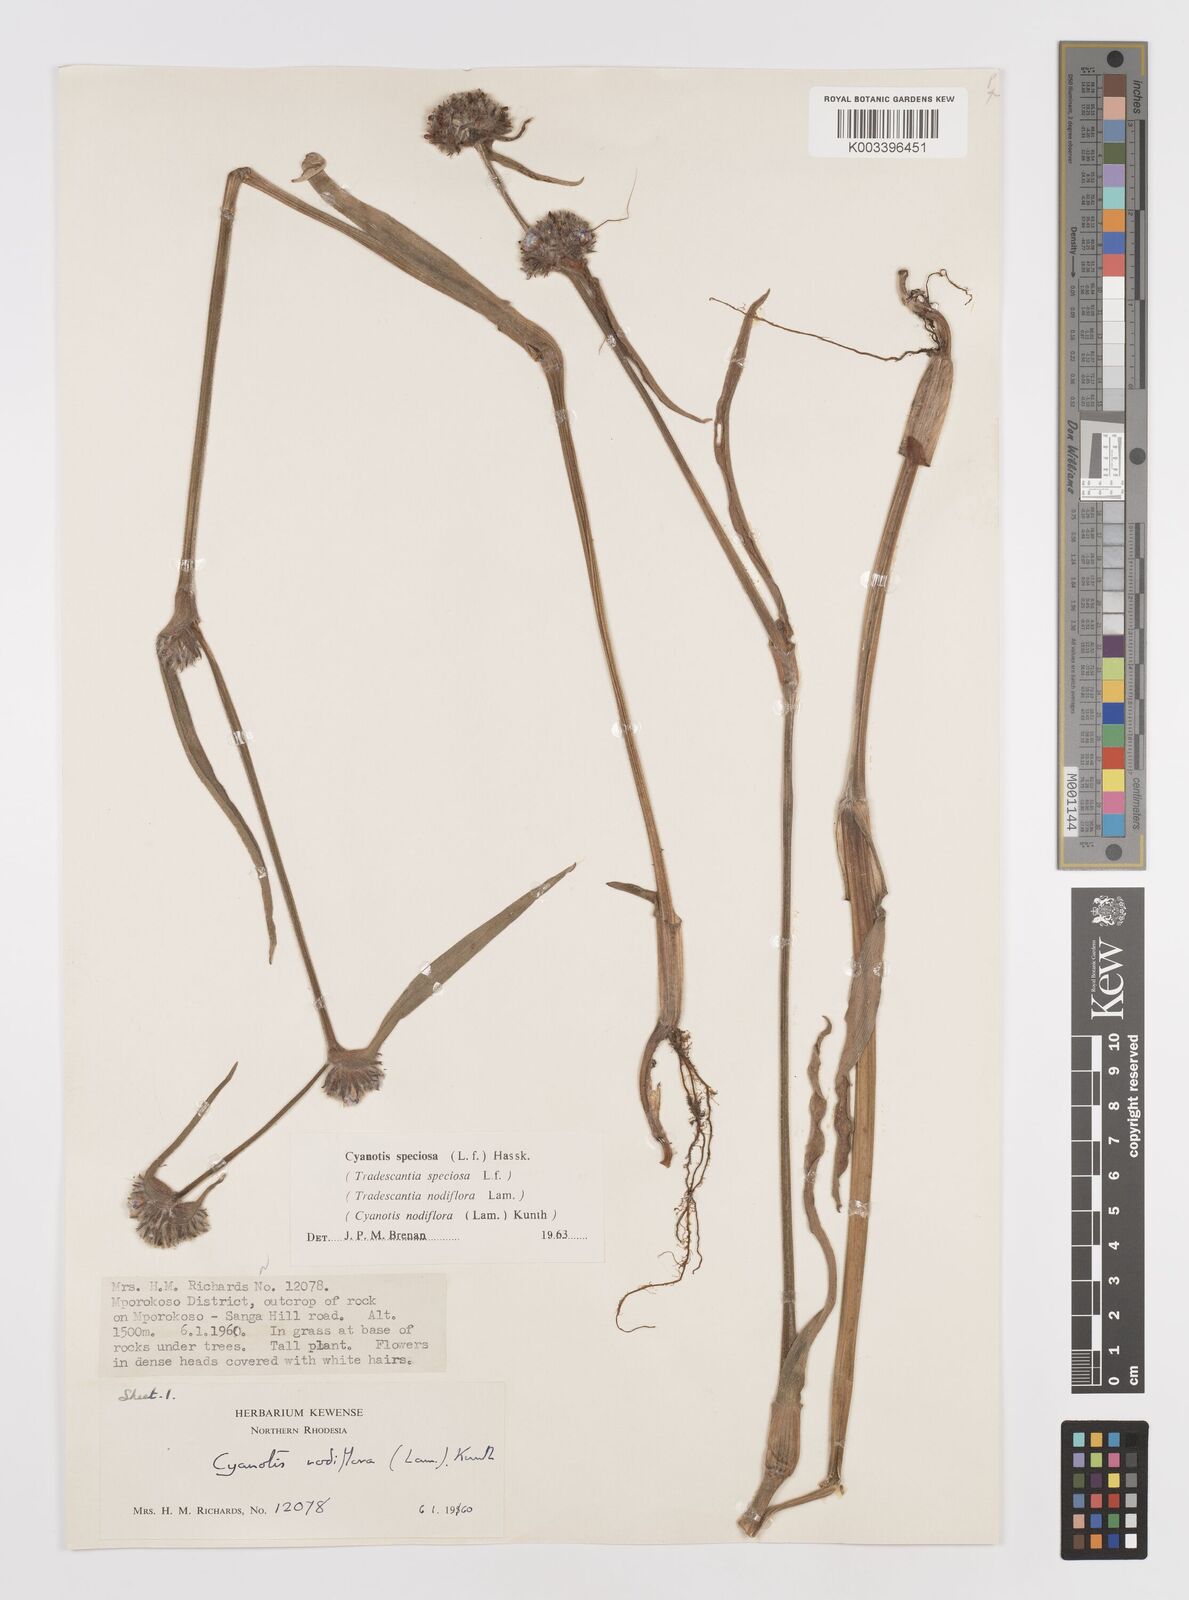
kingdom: Plantae
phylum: Tracheophyta
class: Liliopsida
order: Commelinales
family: Commelinaceae
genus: Cyanotis
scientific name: Cyanotis speciosa
